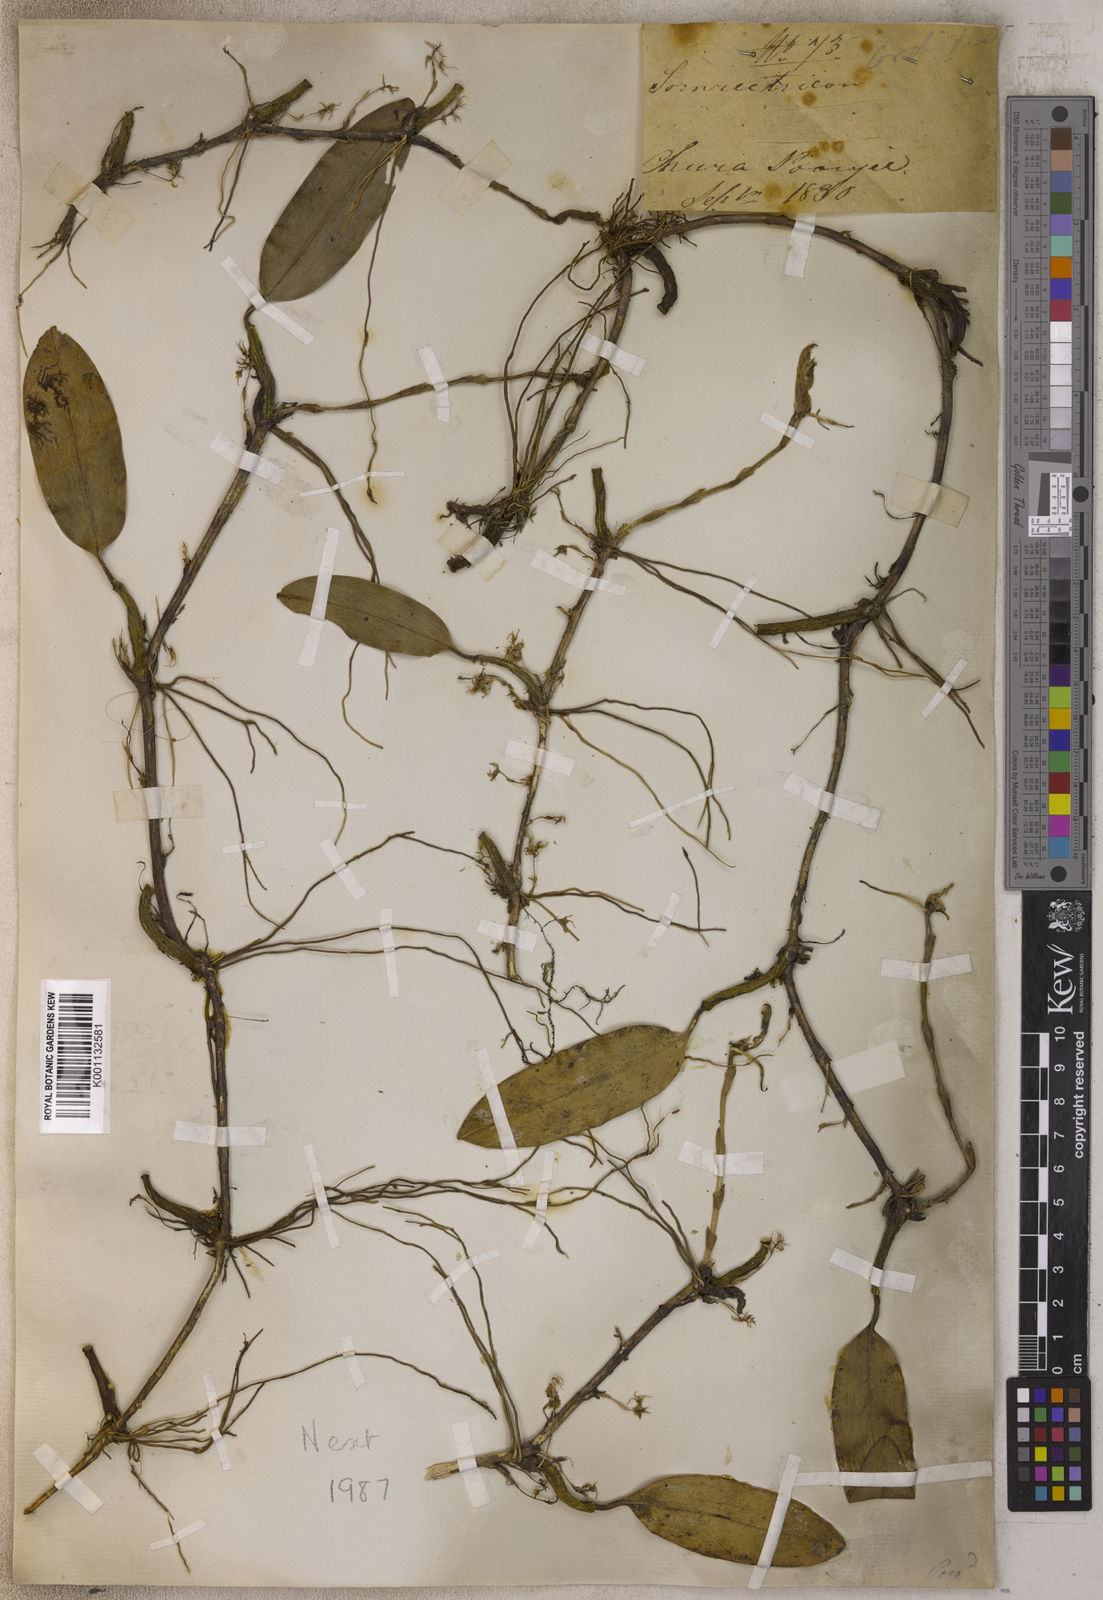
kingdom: Plantae
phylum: Tracheophyta
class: Liliopsida
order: Asparagales
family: Orchidaceae
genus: Bulbophyllum
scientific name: Bulbophyllum
